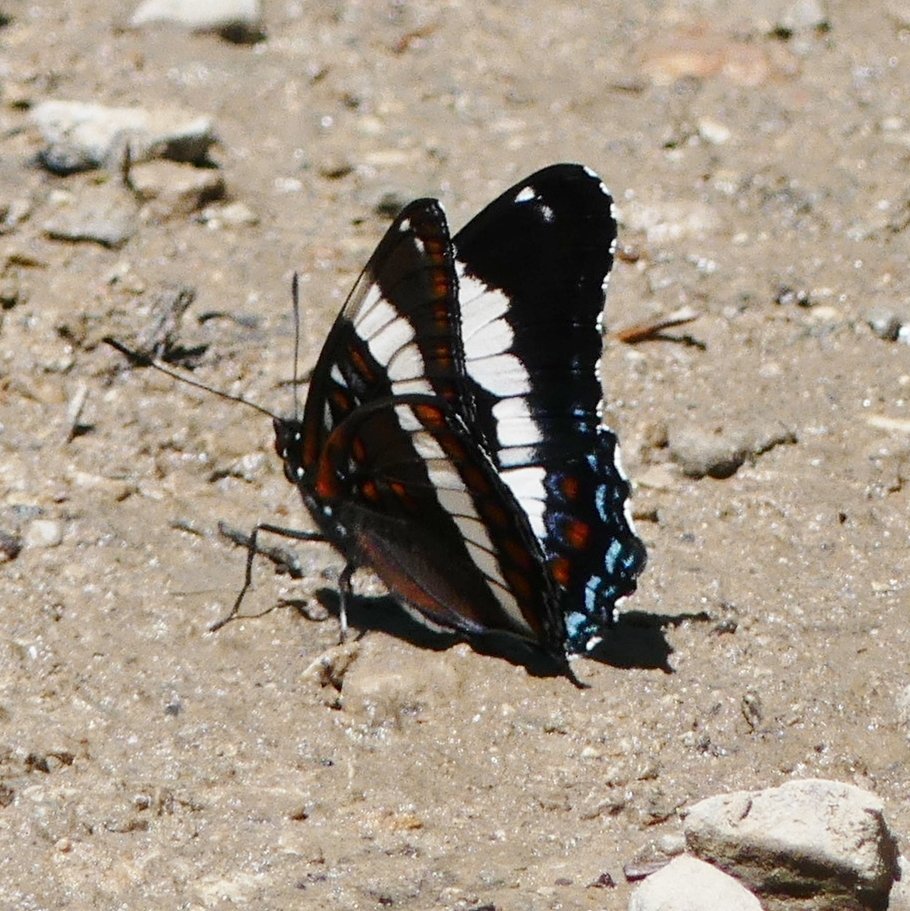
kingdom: Animalia
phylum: Arthropoda
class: Insecta
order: Lepidoptera
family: Nymphalidae
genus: Limenitis
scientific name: Limenitis arthemis
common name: Red-spotted Admiral
